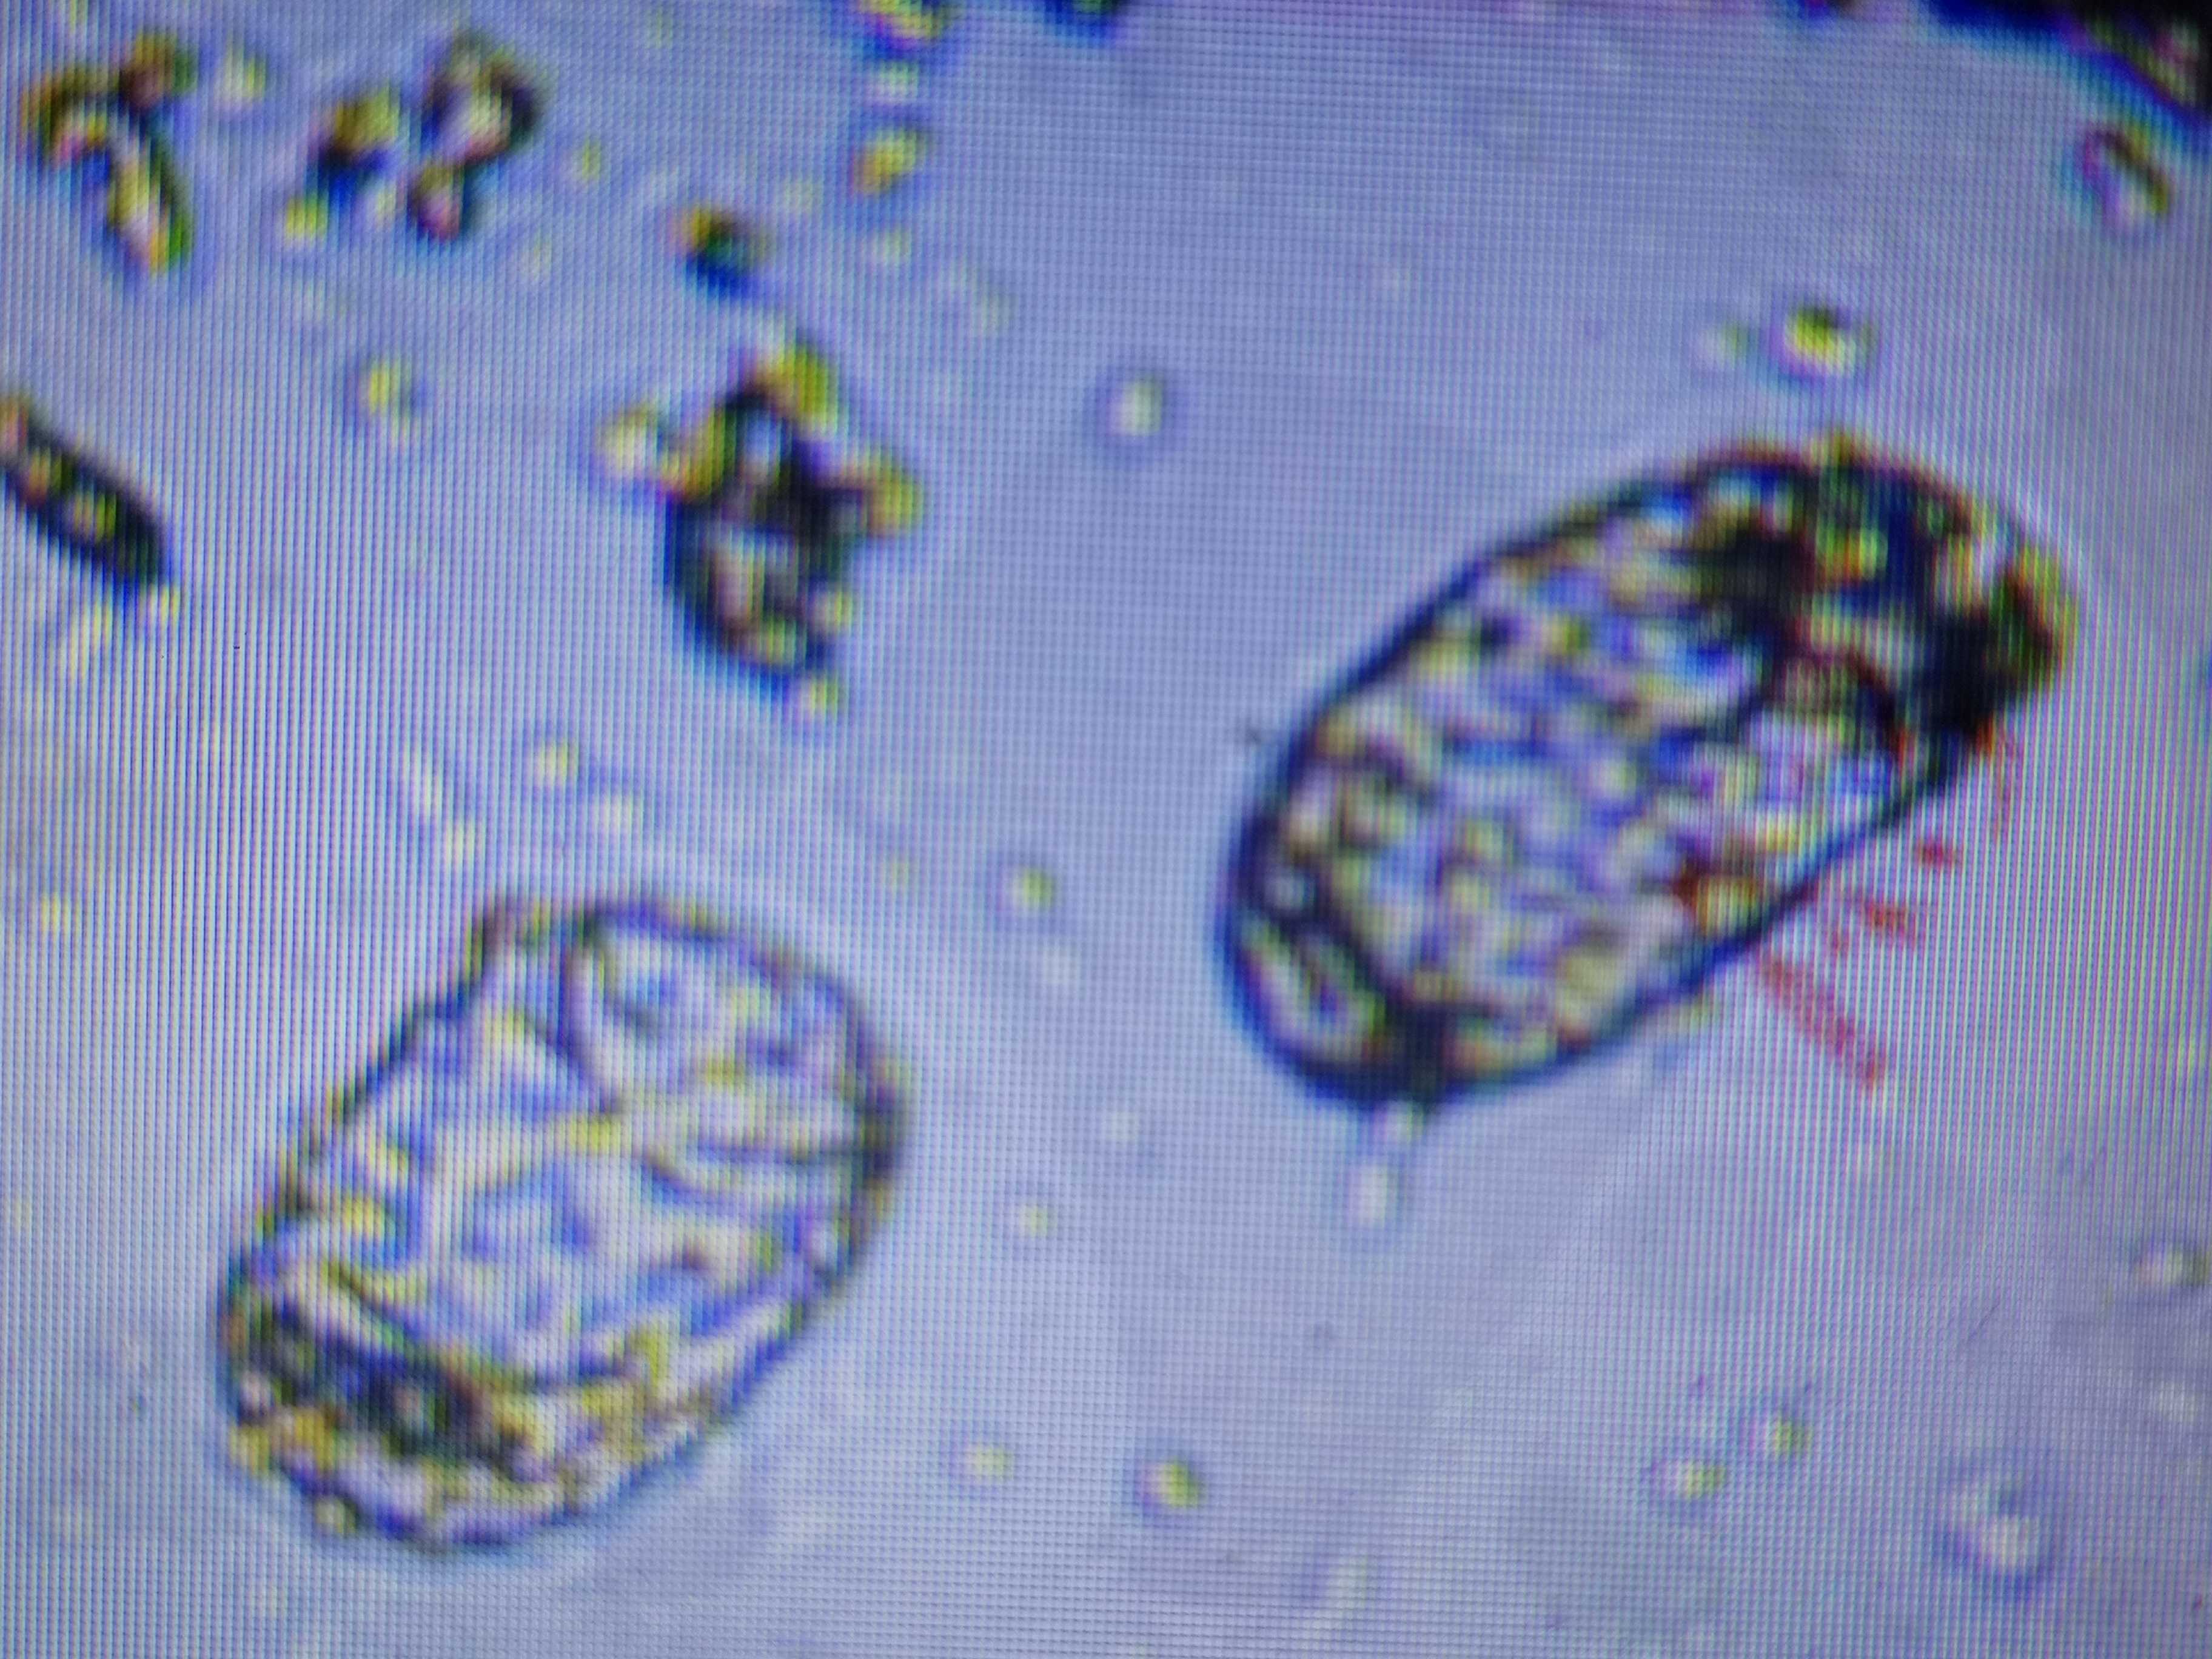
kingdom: Fungi
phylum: Ascomycota
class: Leotiomycetes
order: Helotiales
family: Erysiphaceae
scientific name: Erysiphaceae
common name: meldugfamilien
